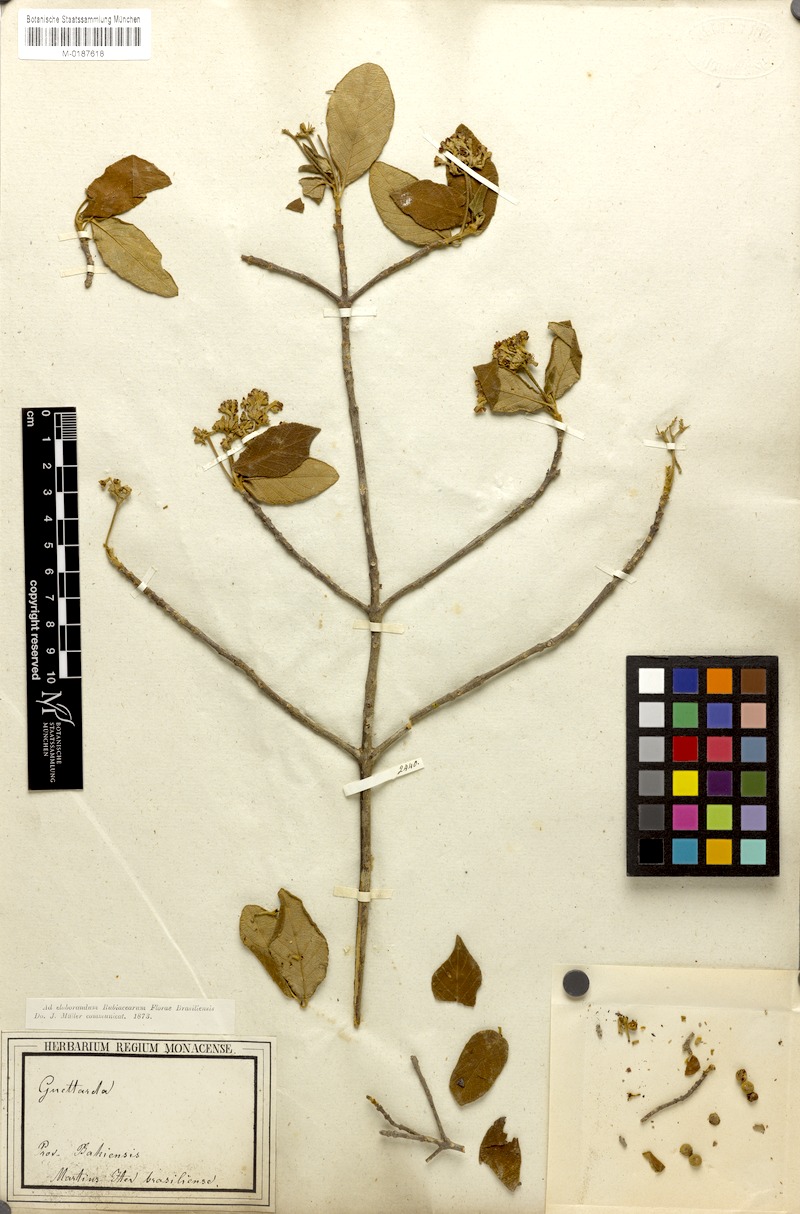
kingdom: Plantae
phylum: Tracheophyta
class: Magnoliopsida
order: Gentianales
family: Rubiaceae
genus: Guettarda
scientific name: Guettarda angelica
